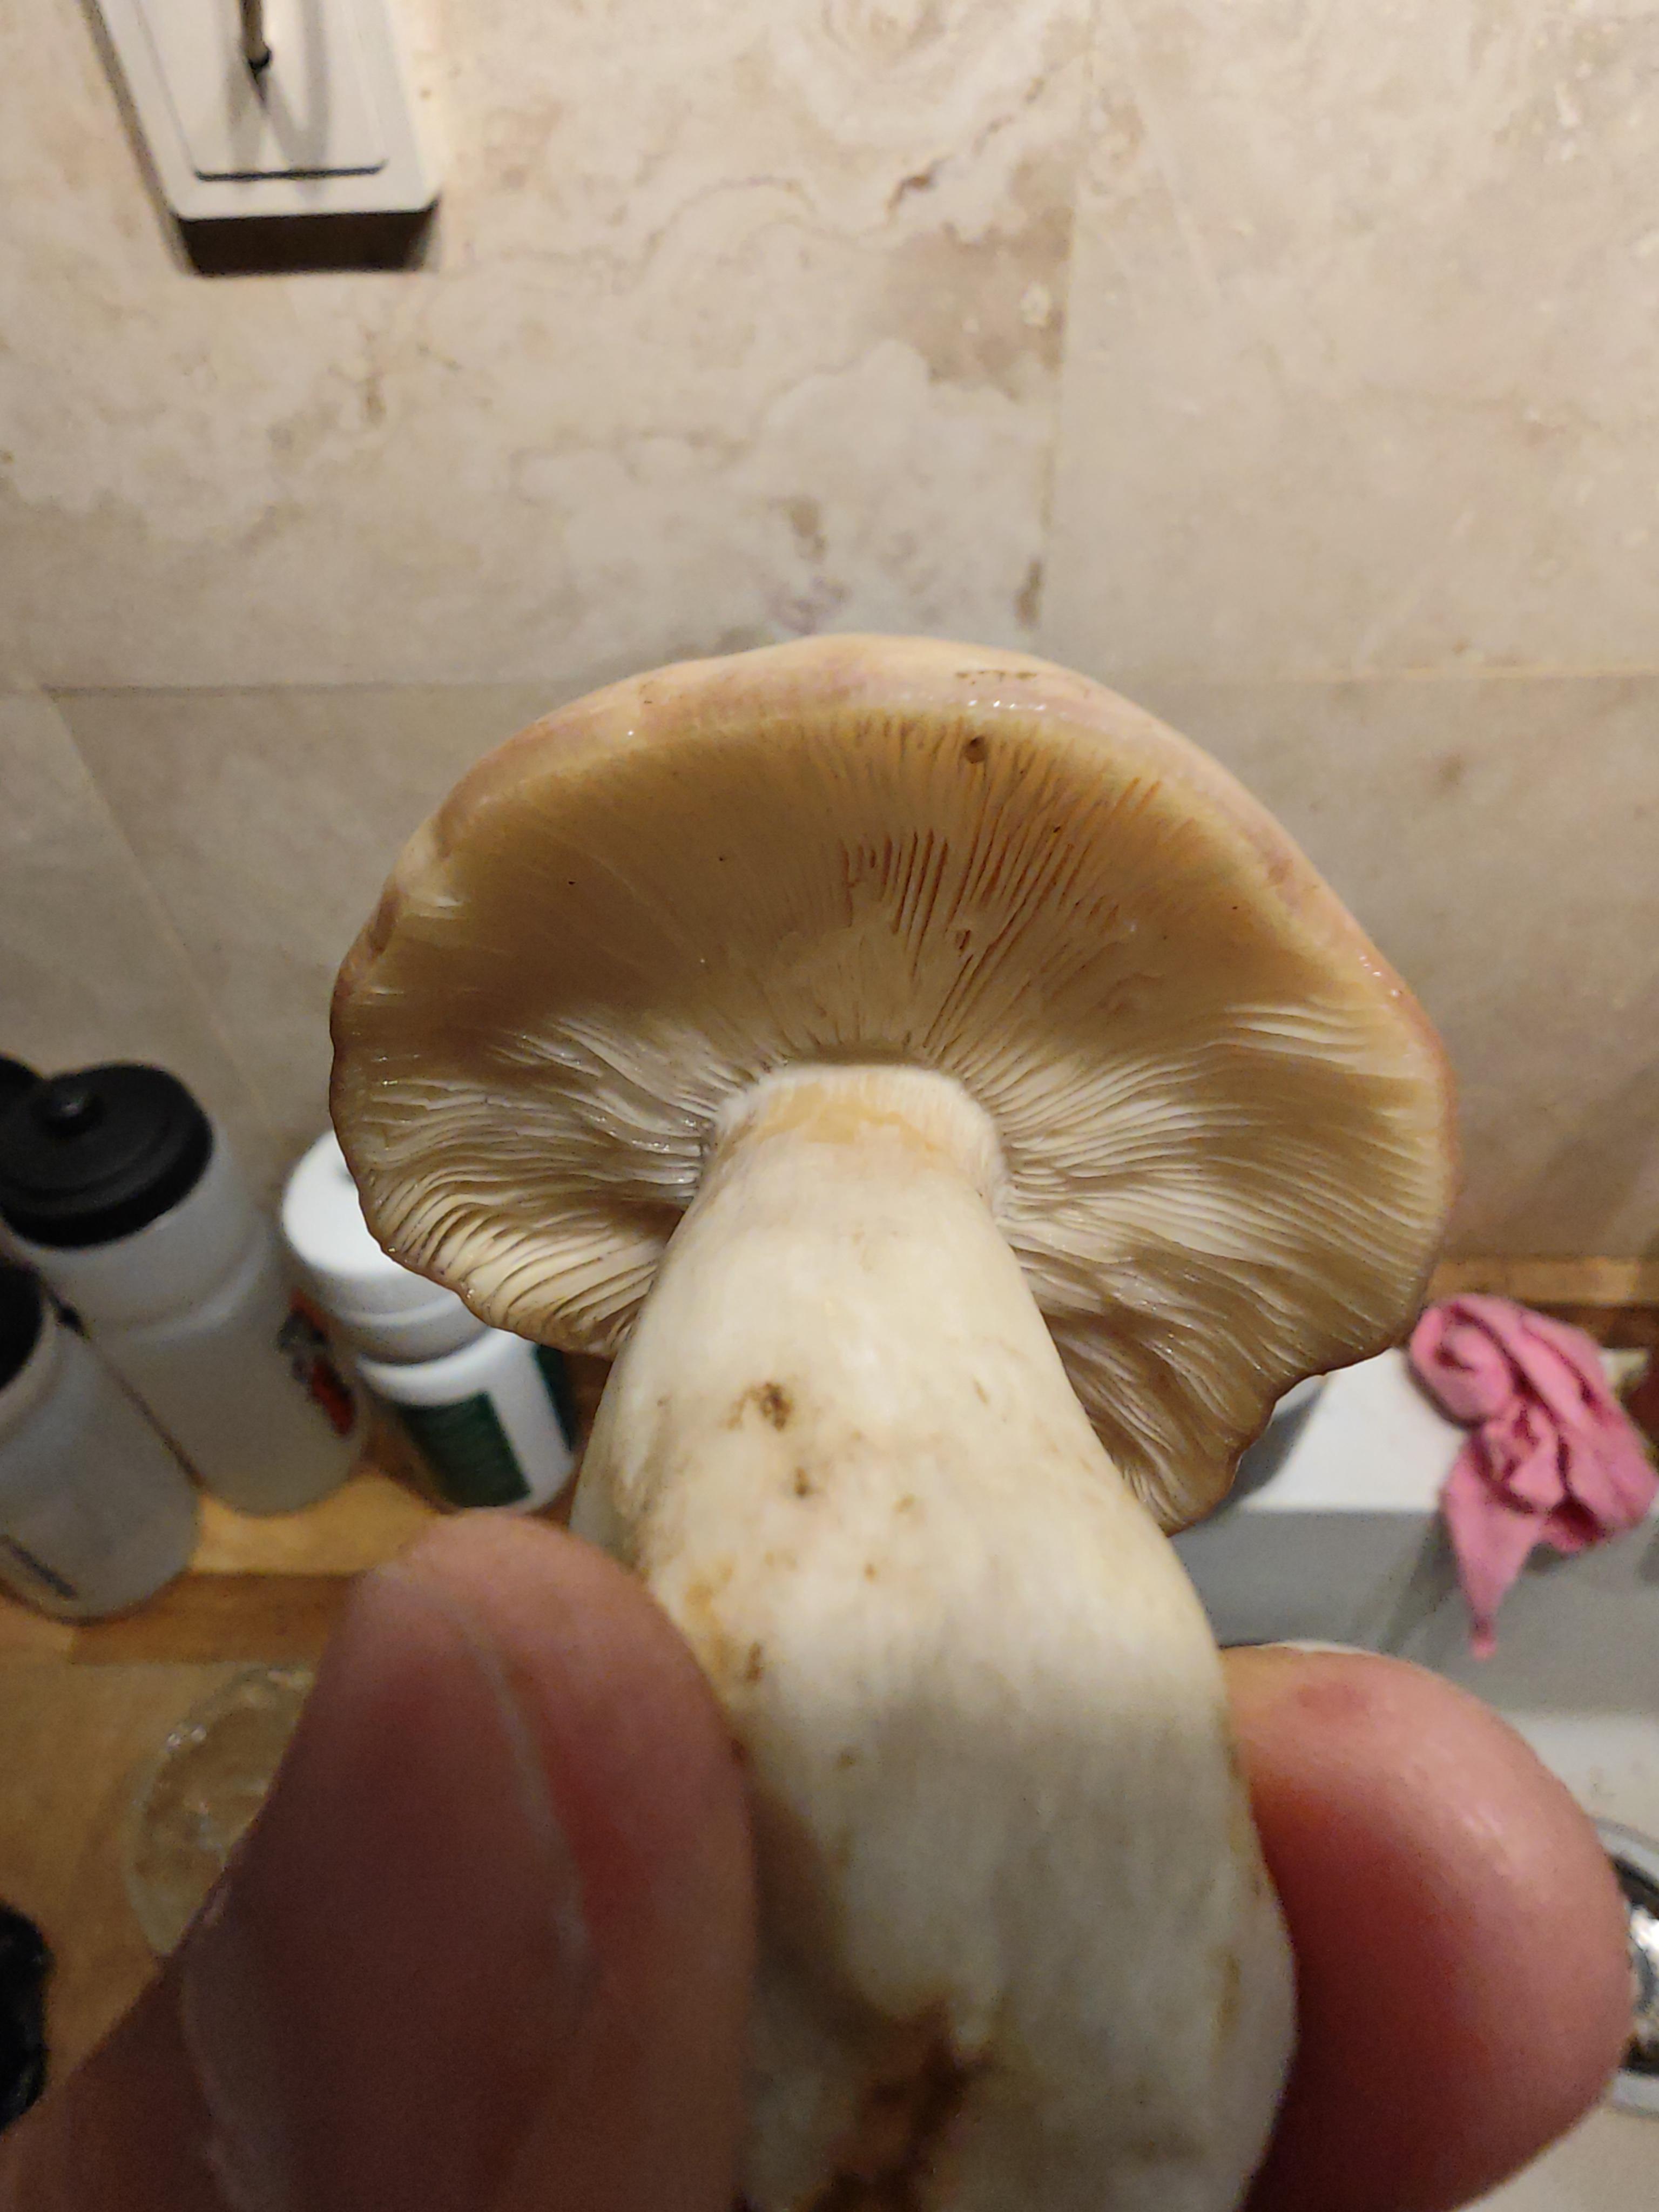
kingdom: Fungi
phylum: Basidiomycota
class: Agaricomycetes
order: Russulales
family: Russulaceae
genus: Russula
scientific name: Russula
